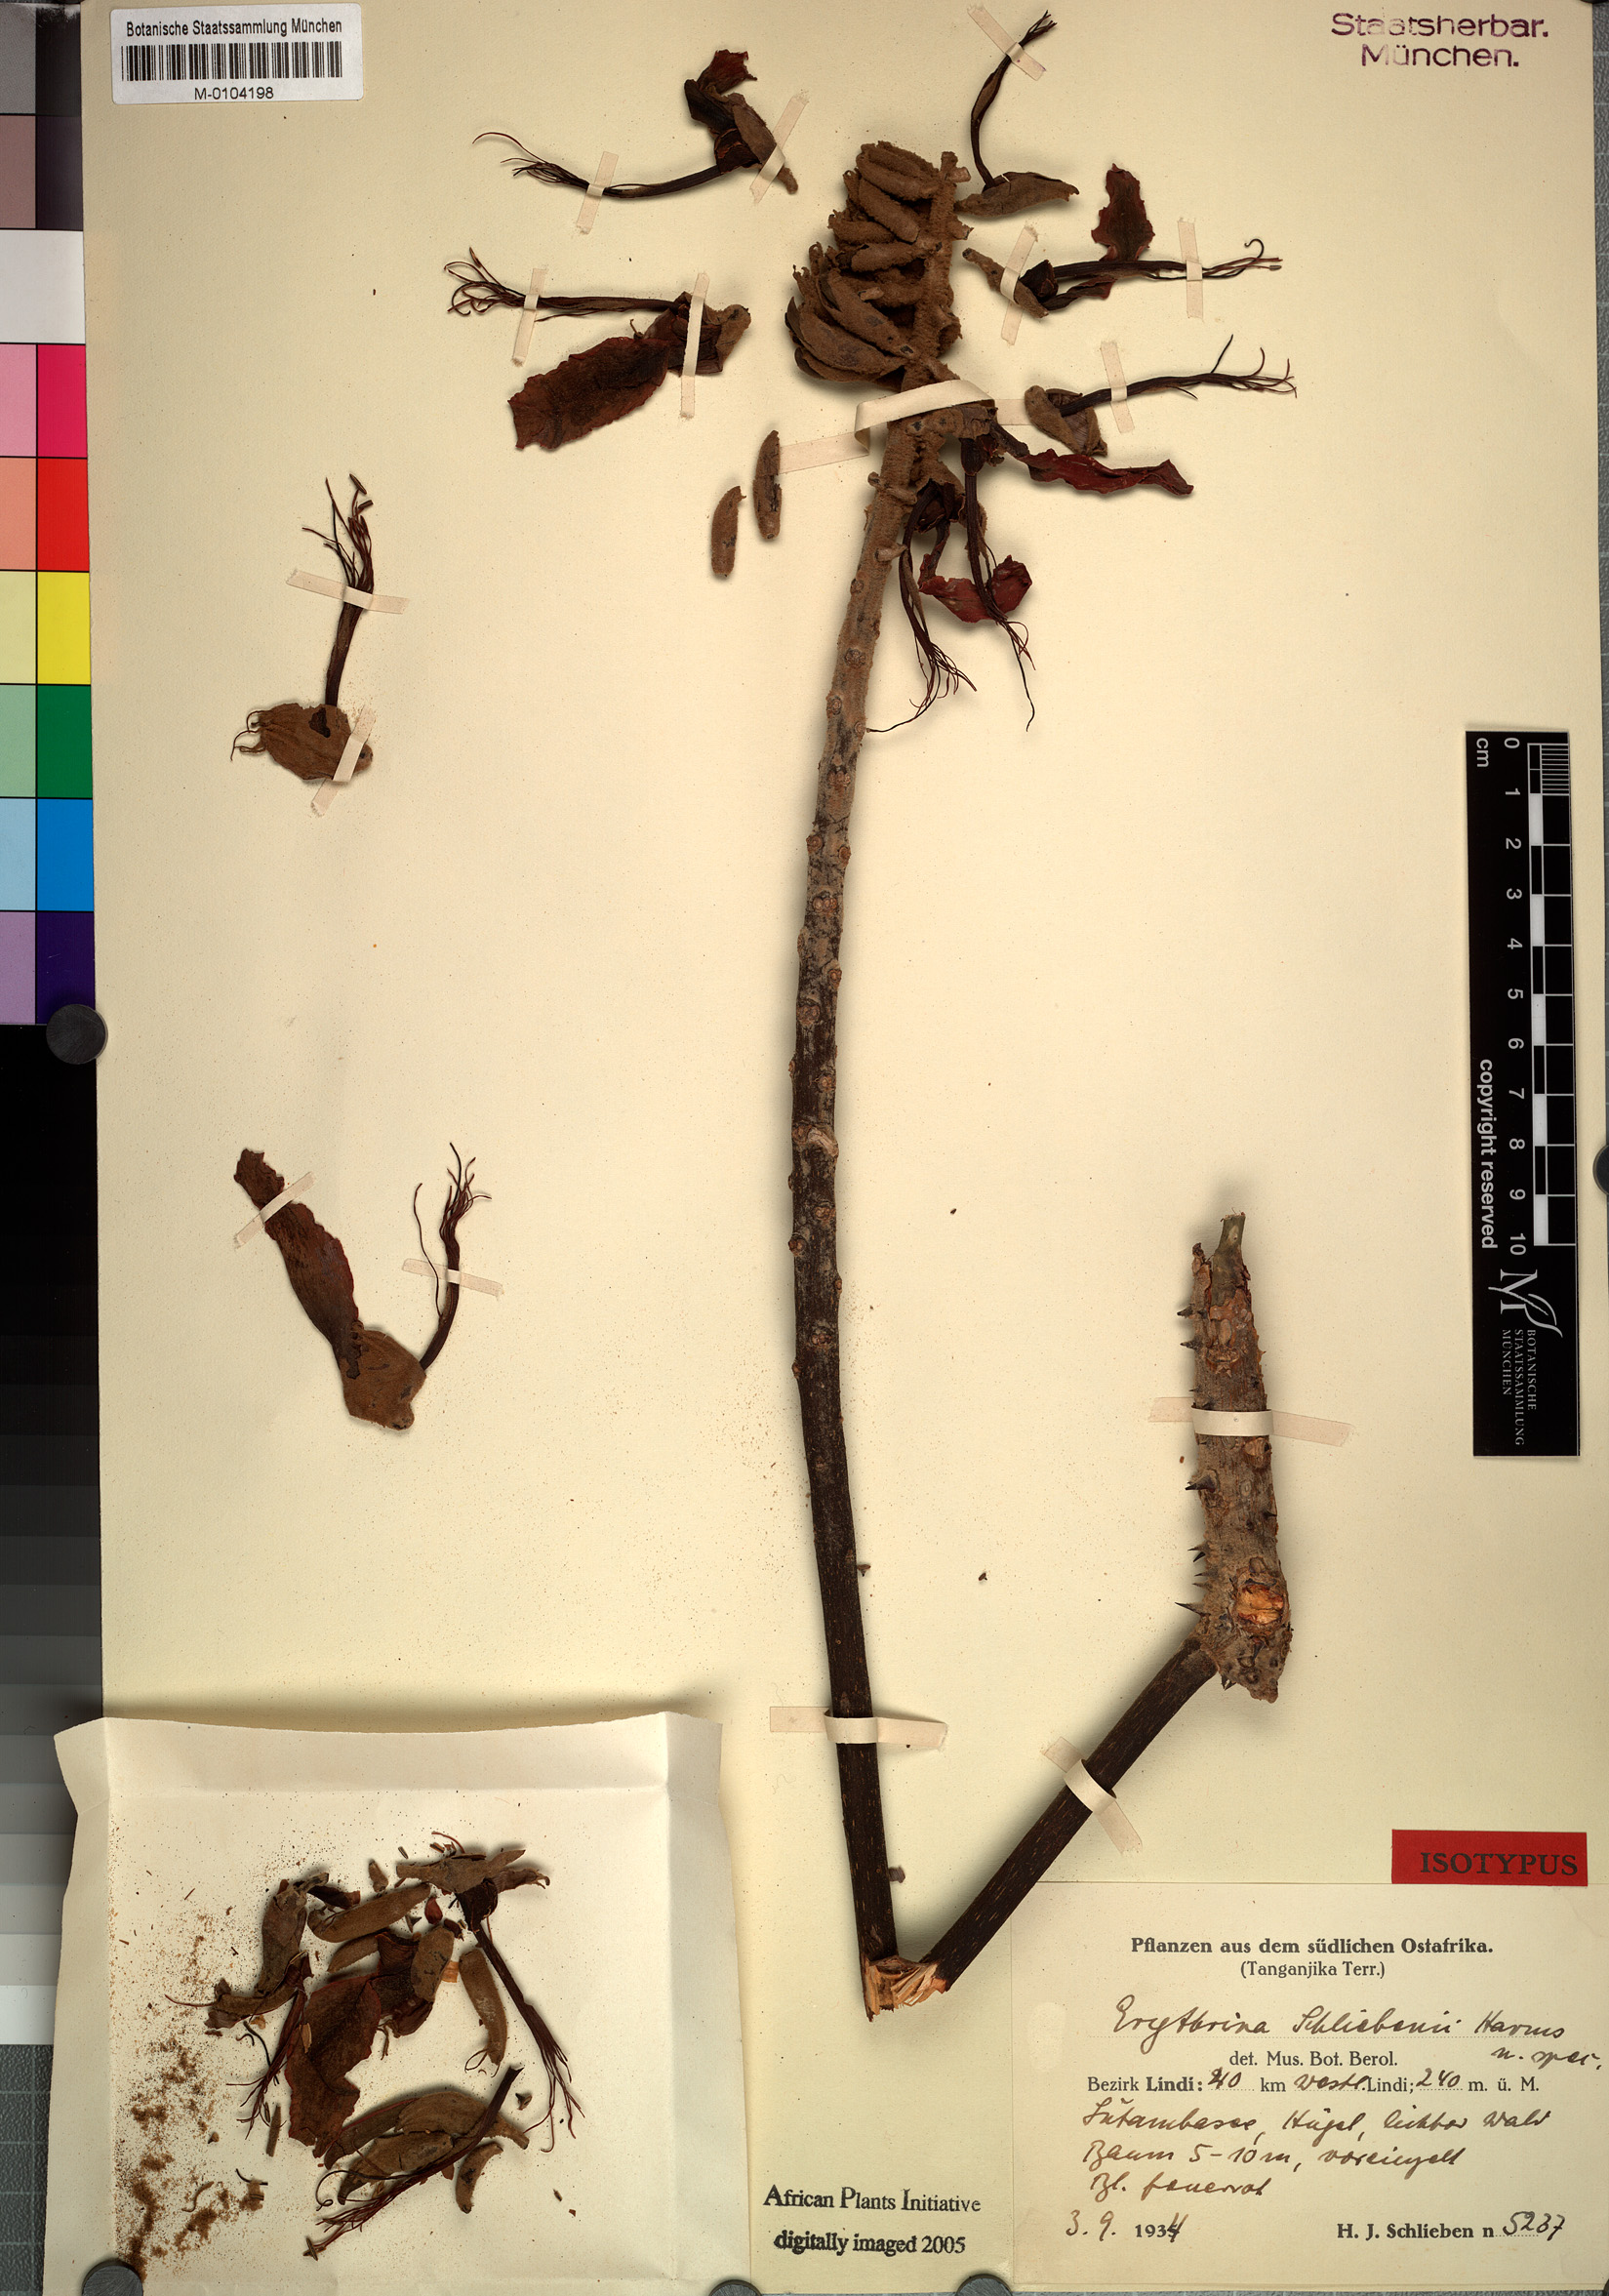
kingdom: Plantae
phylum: Tracheophyta
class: Magnoliopsida
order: Fabales
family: Fabaceae
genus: Erythrina
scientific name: Erythrina schliebenii
